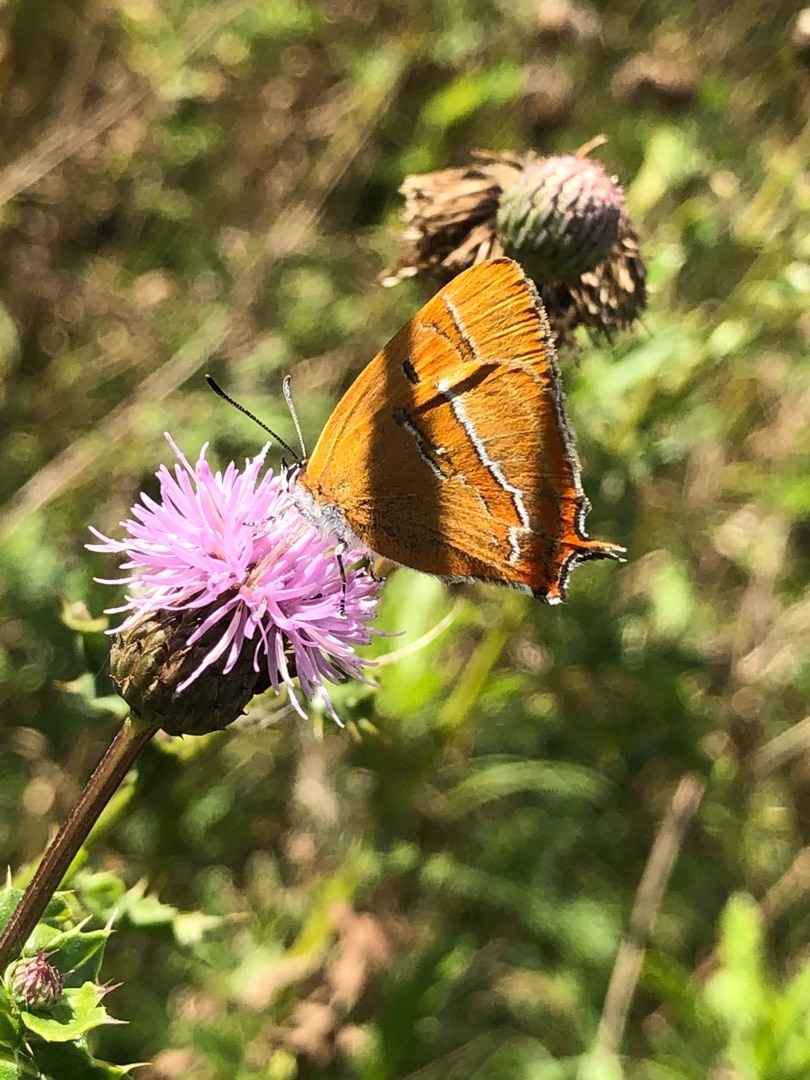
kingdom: Animalia
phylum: Arthropoda
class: Insecta
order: Lepidoptera
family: Lycaenidae
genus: Thecla
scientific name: Thecla betulae
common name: Guldhale
